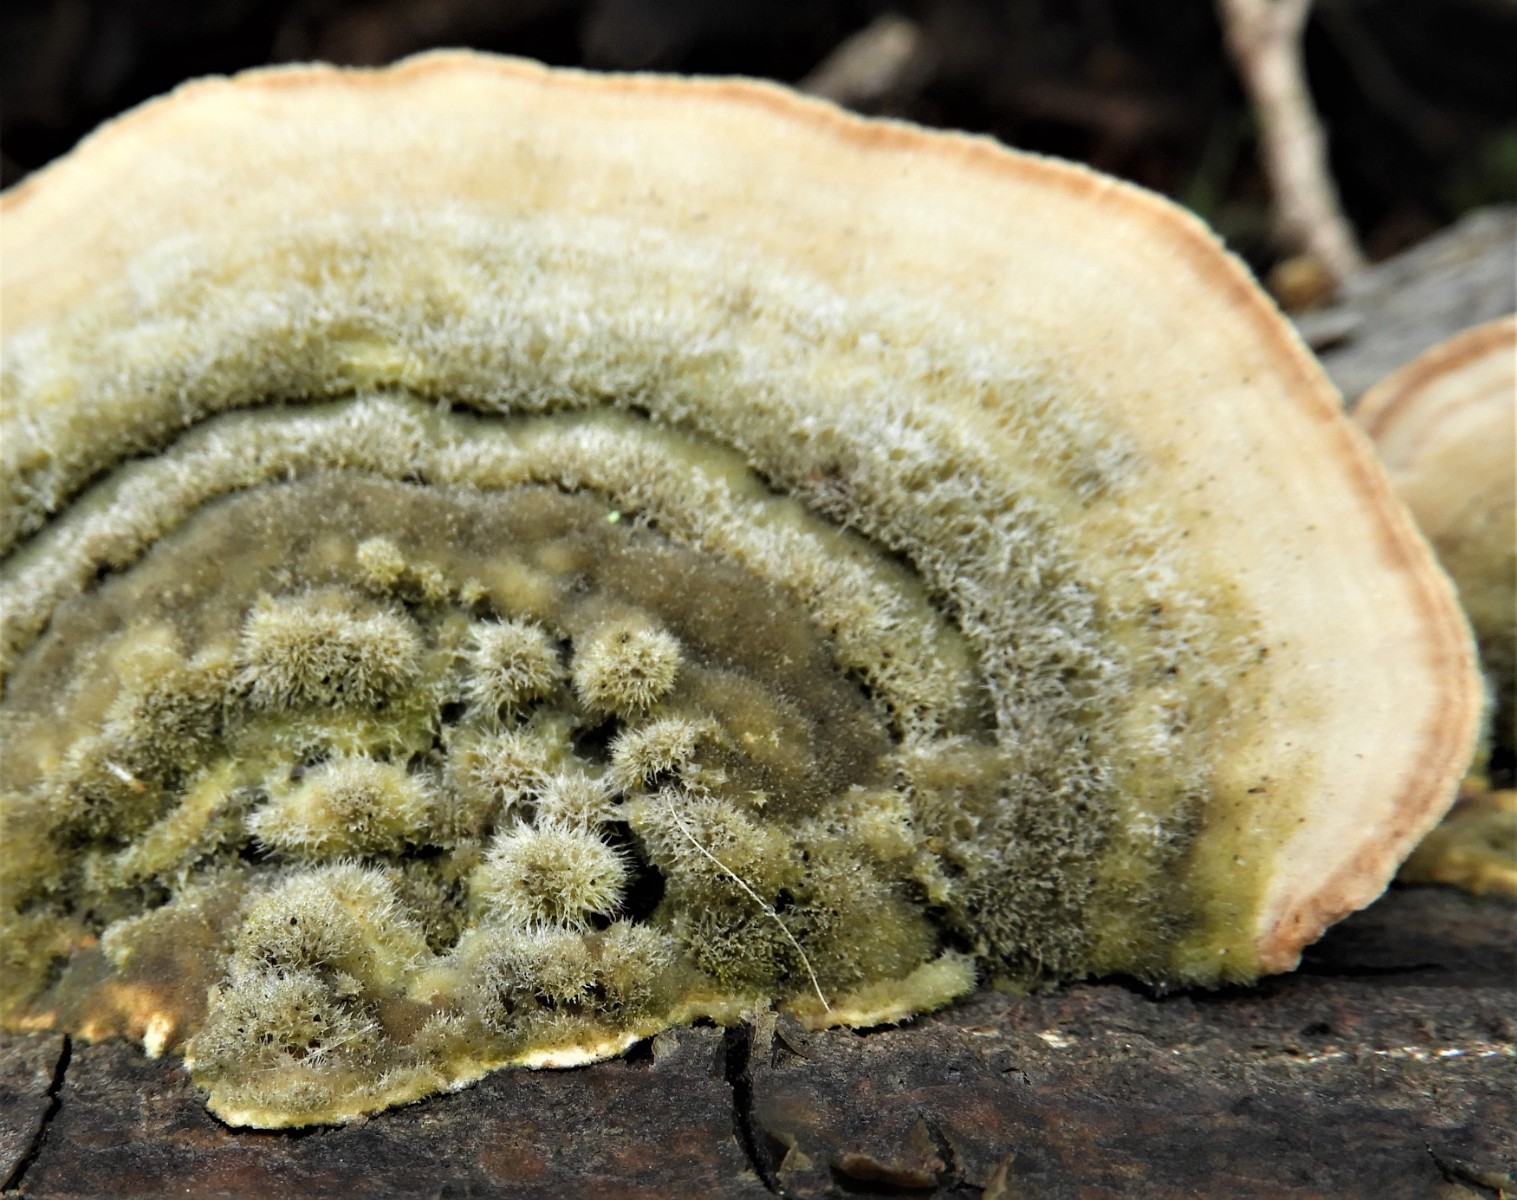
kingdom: Fungi
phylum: Basidiomycota
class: Agaricomycetes
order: Polyporales
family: Polyporaceae
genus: Trametes
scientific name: Trametes hirsuta
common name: håret læderporesvamp
